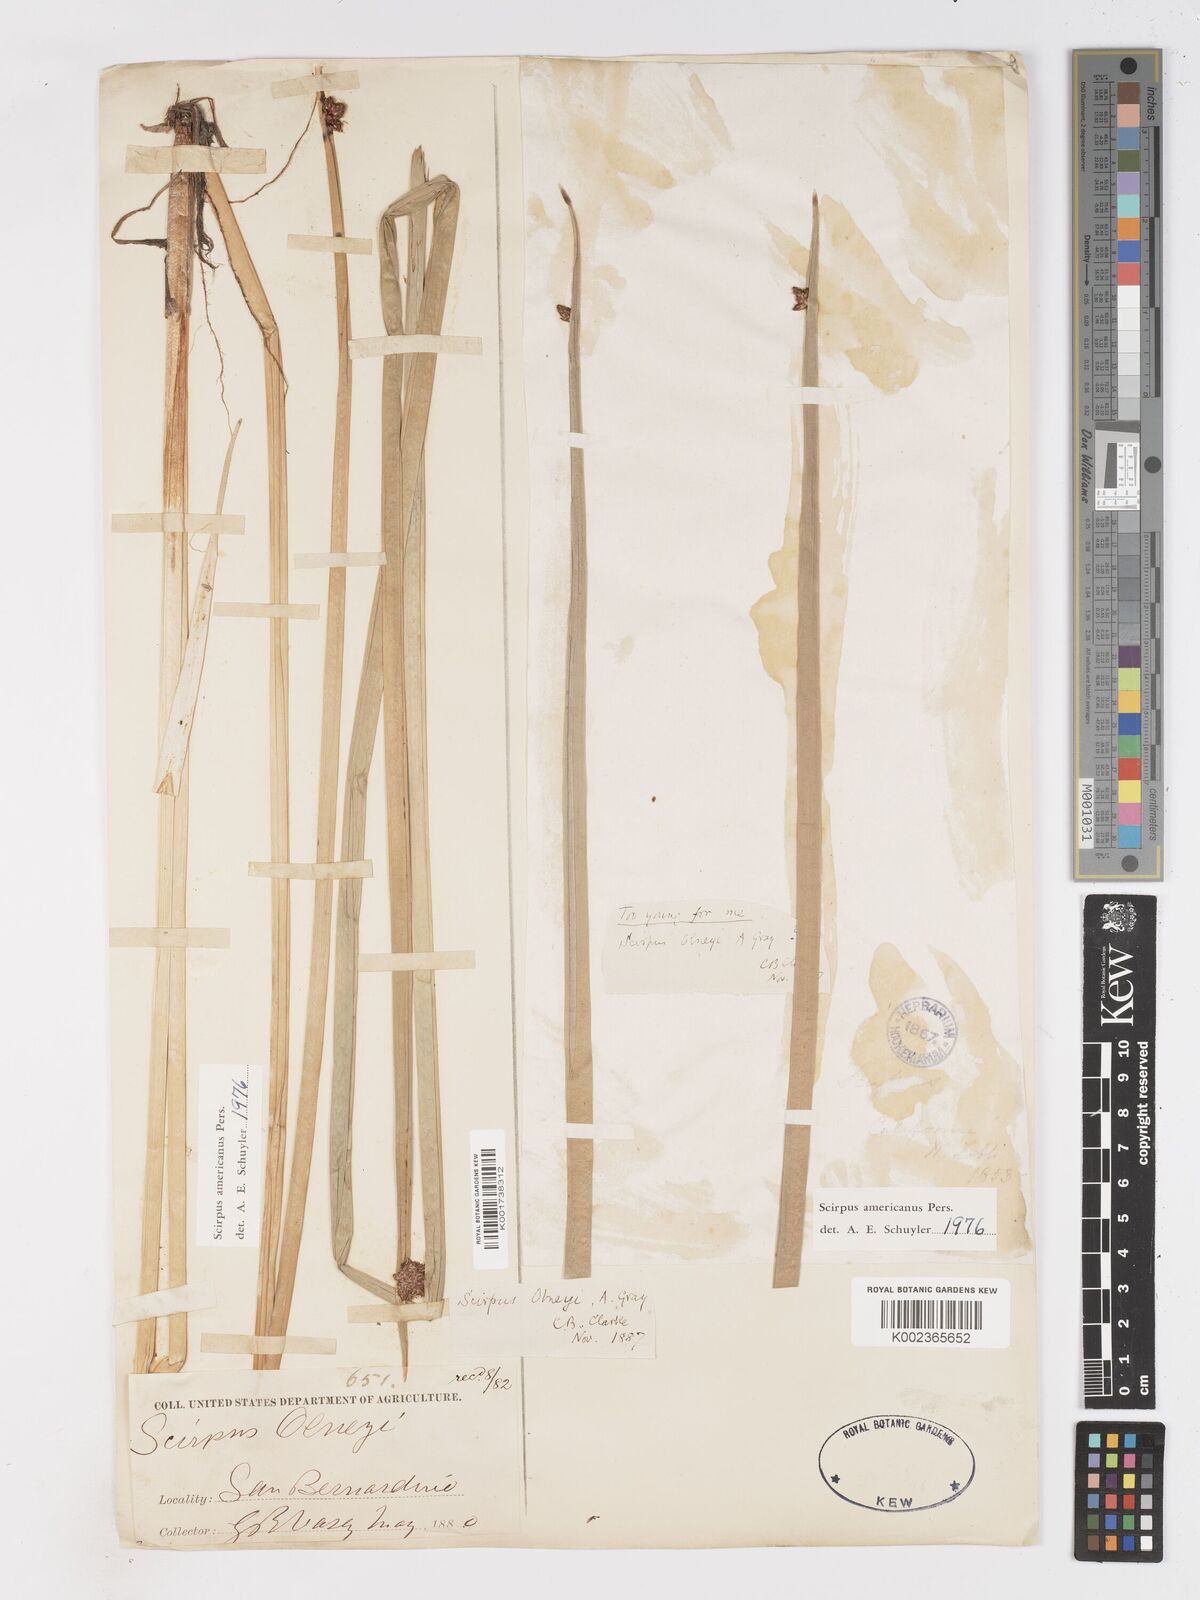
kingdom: Plantae
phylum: Tracheophyta
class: Liliopsida
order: Poales
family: Cyperaceae
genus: Schoenoplectus
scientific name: Schoenoplectus americanus
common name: American three-square bulrush
